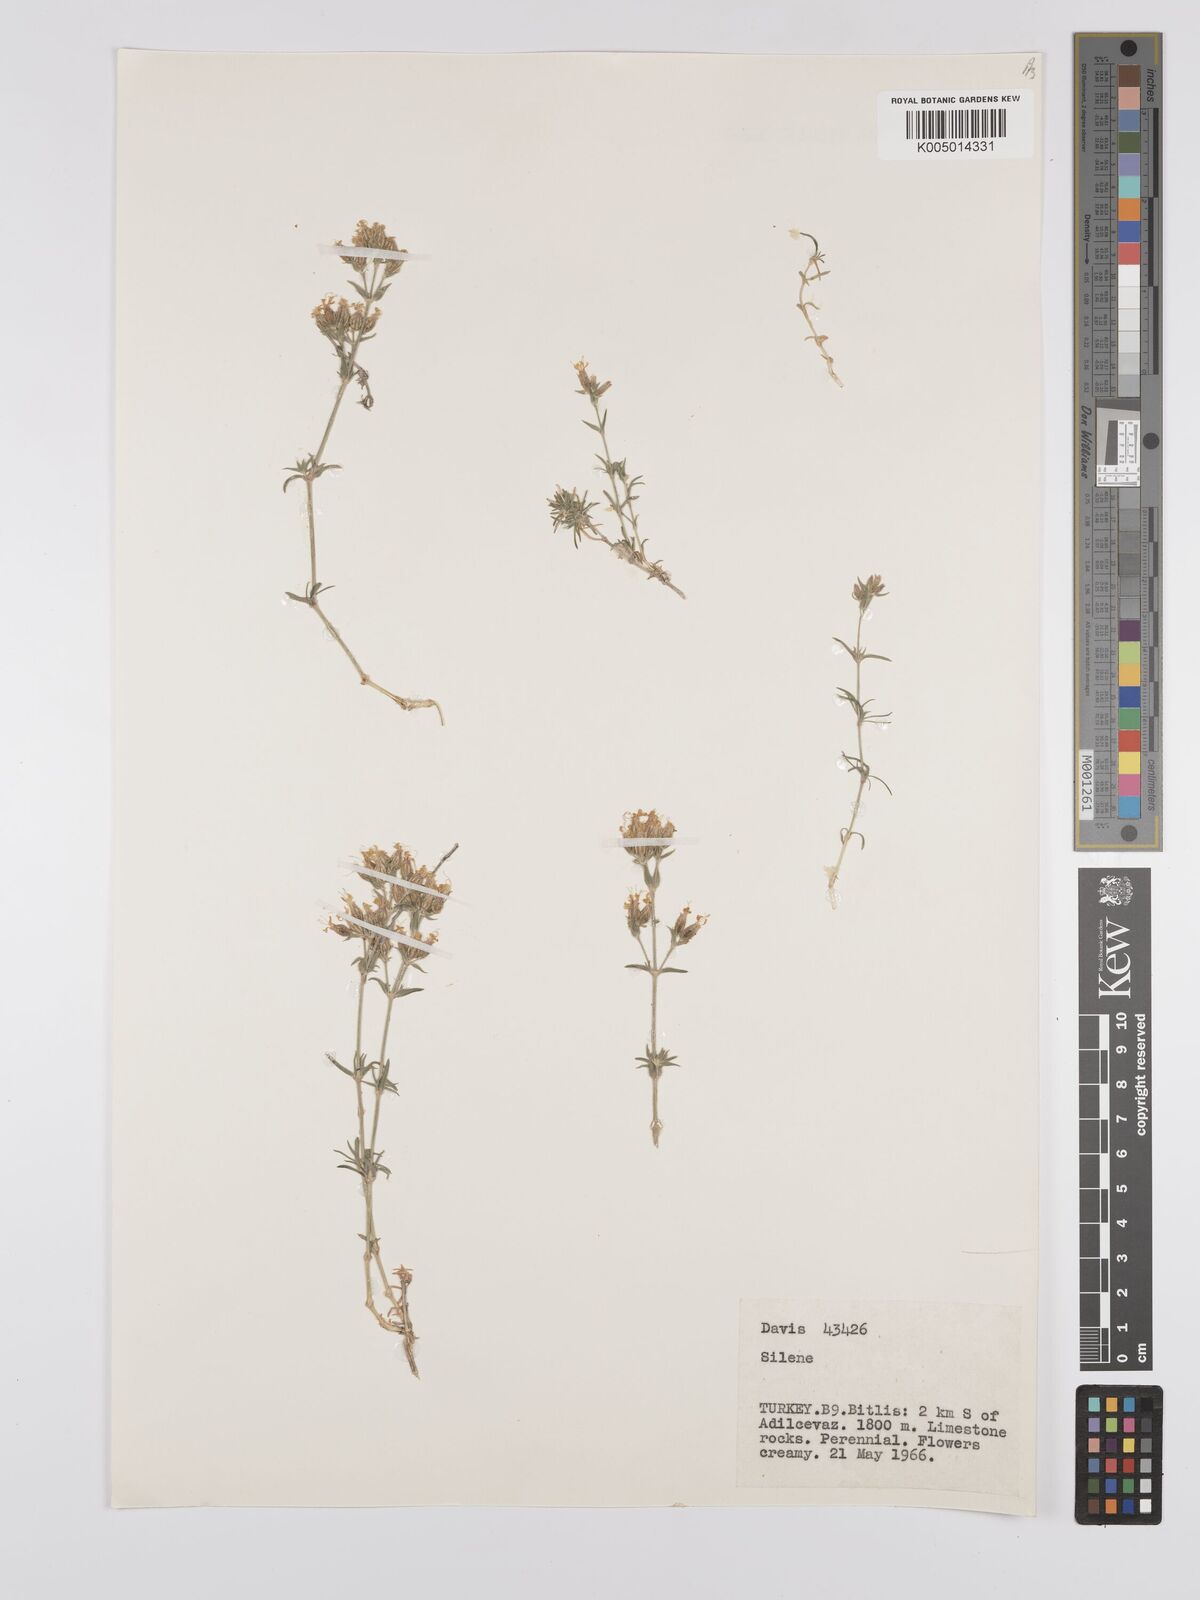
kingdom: Plantae
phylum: Tracheophyta
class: Magnoliopsida
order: Caryophyllales
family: Caryophyllaceae
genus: Silene
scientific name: Silene
